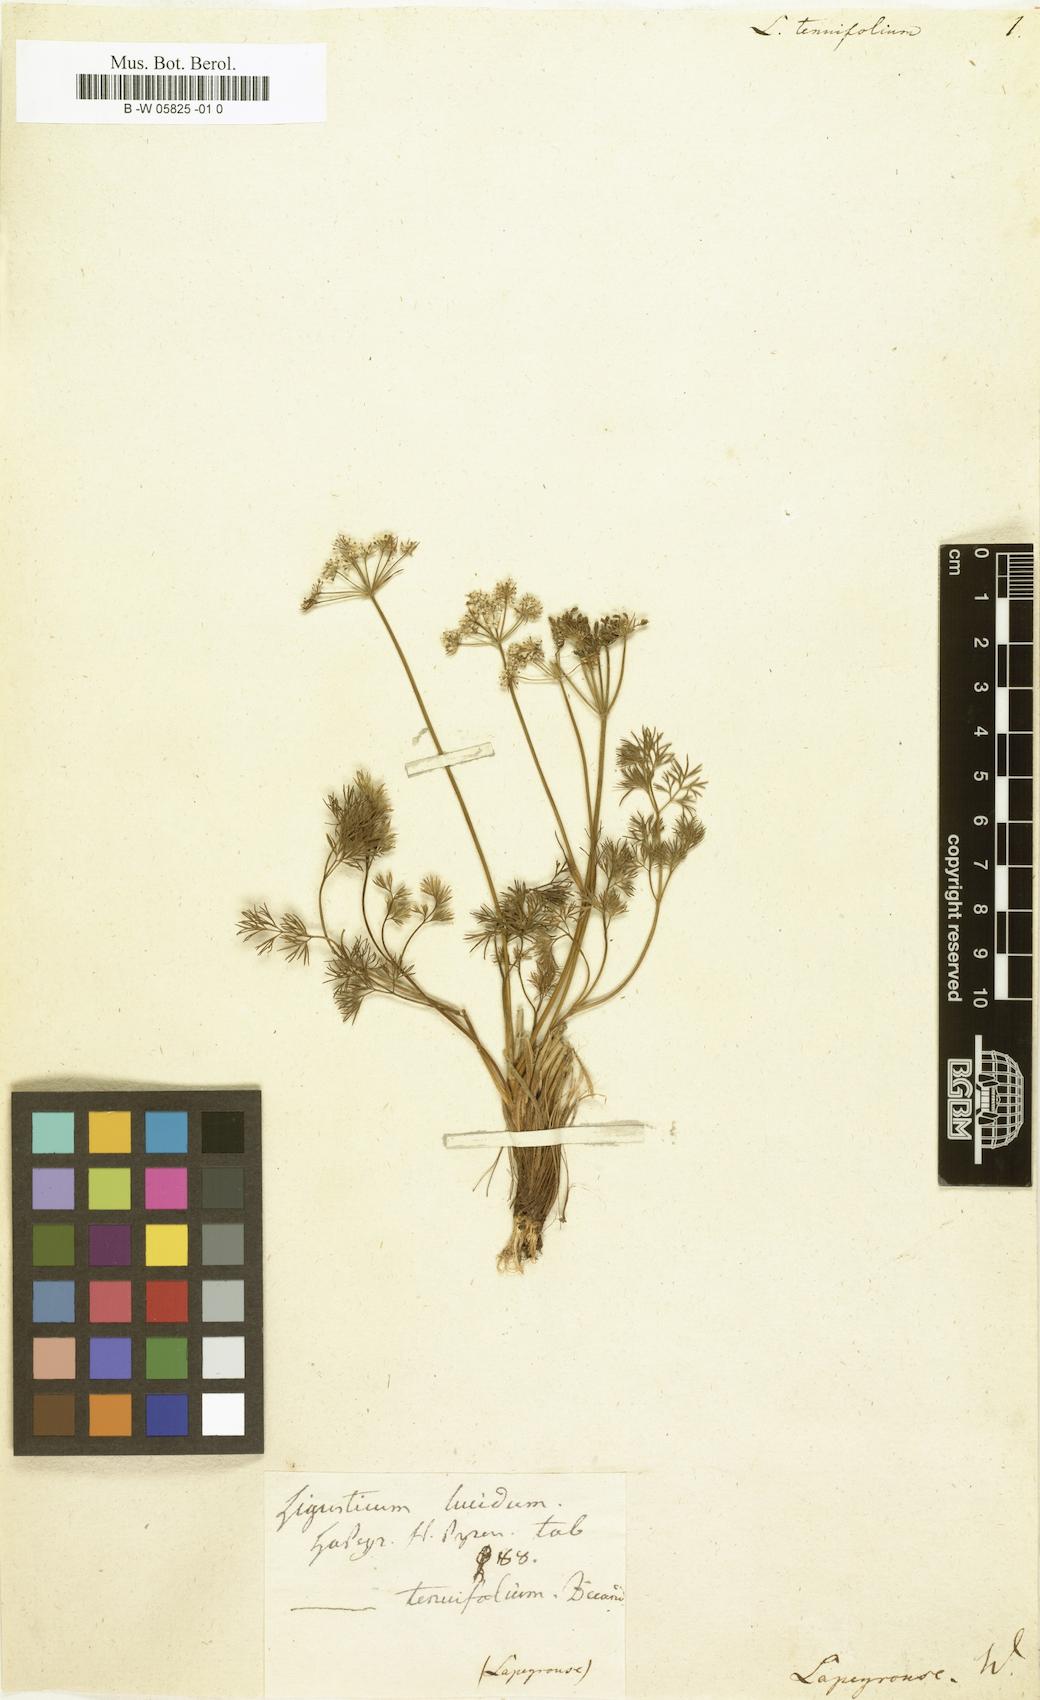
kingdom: Plantae
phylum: Tracheophyta
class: Magnoliopsida
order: Apiales
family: Apiaceae
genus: Ligusticum
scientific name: Ligusticum tenuifolium
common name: Idaho licorice-root
